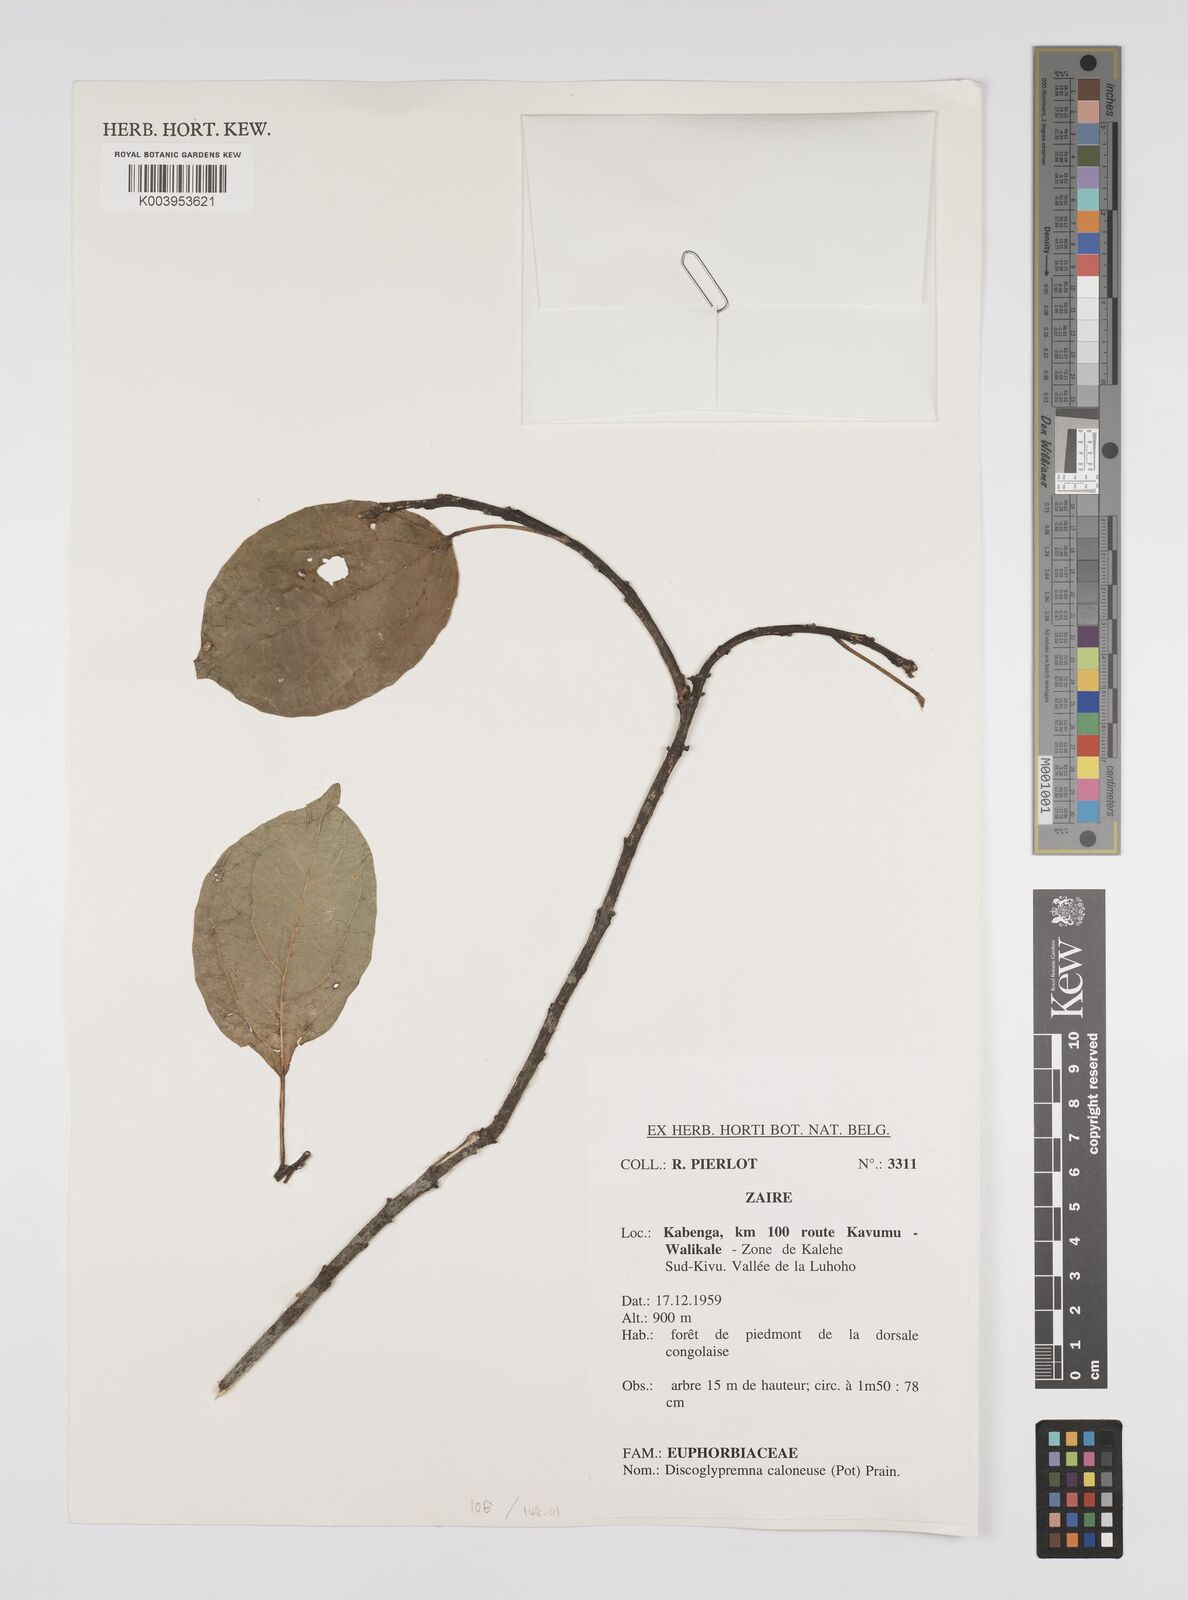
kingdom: Plantae
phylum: Tracheophyta
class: Magnoliopsida
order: Malpighiales
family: Euphorbiaceae
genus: Discoglypremna
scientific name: Discoglypremna caloneura
